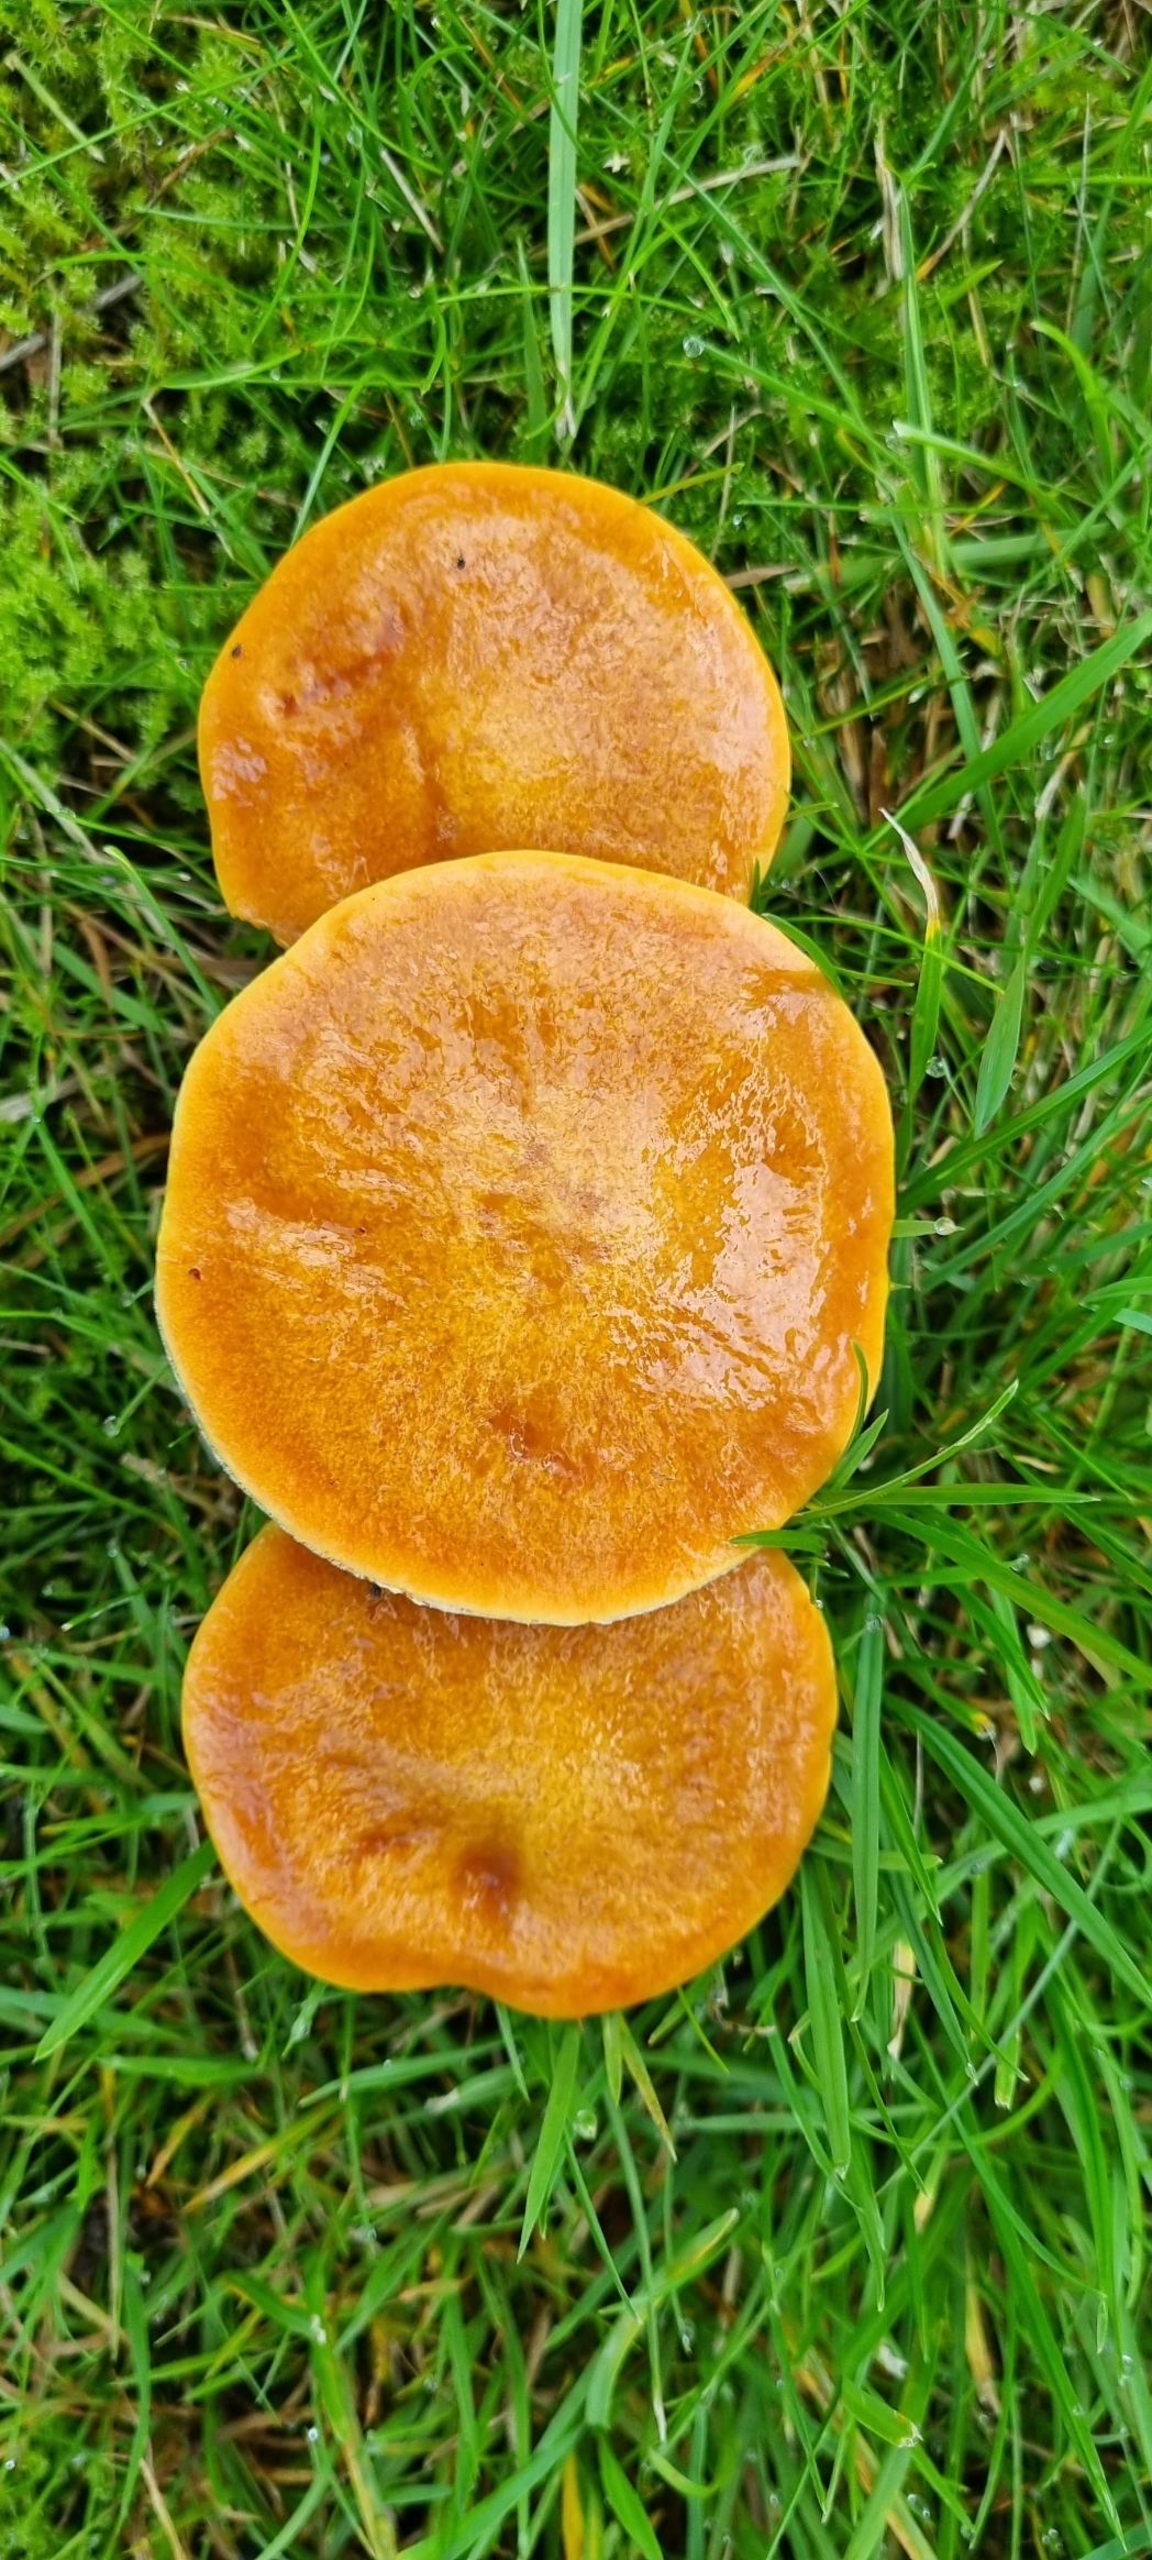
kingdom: Fungi
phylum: Basidiomycota
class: Agaricomycetes
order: Boletales
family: Suillaceae
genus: Suillus
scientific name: Suillus grevillei
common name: Lærke-slimrørhat
